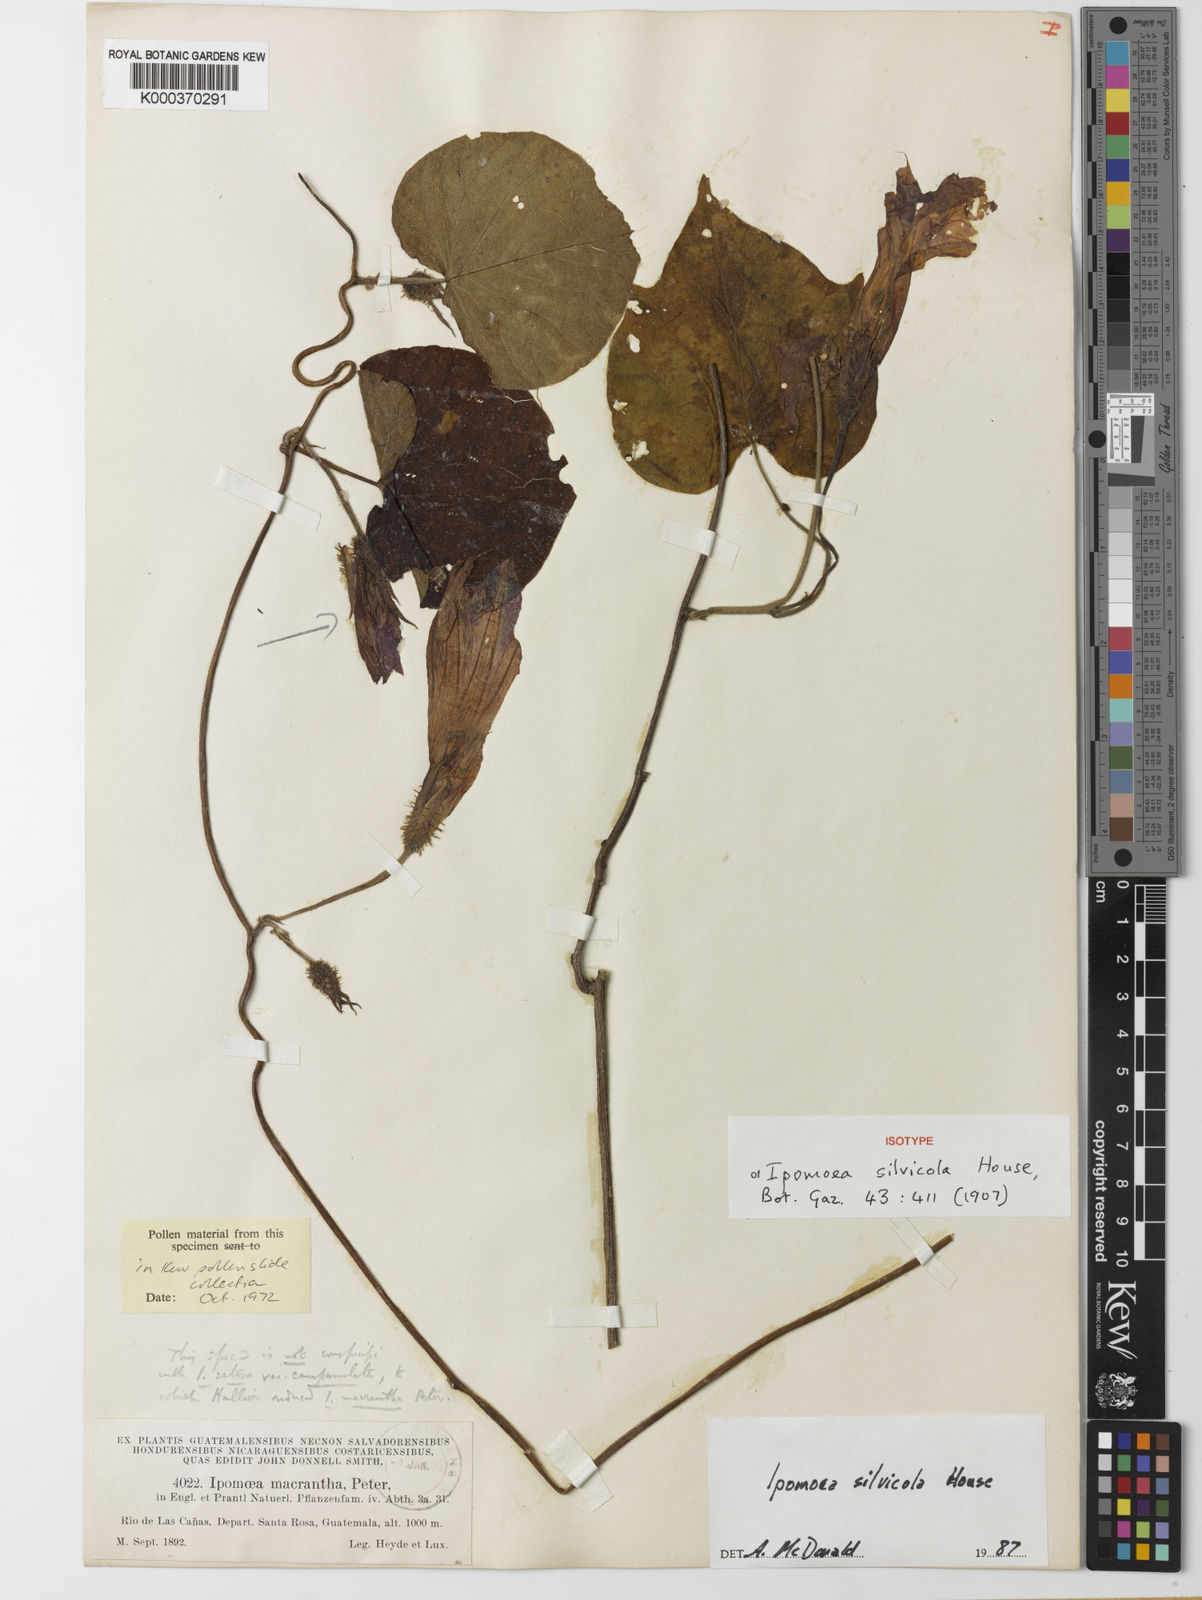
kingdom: Plantae
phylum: Tracheophyta
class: Magnoliopsida
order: Solanales
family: Convolvulaceae
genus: Ipomoea
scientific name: Ipomoea silvicola
